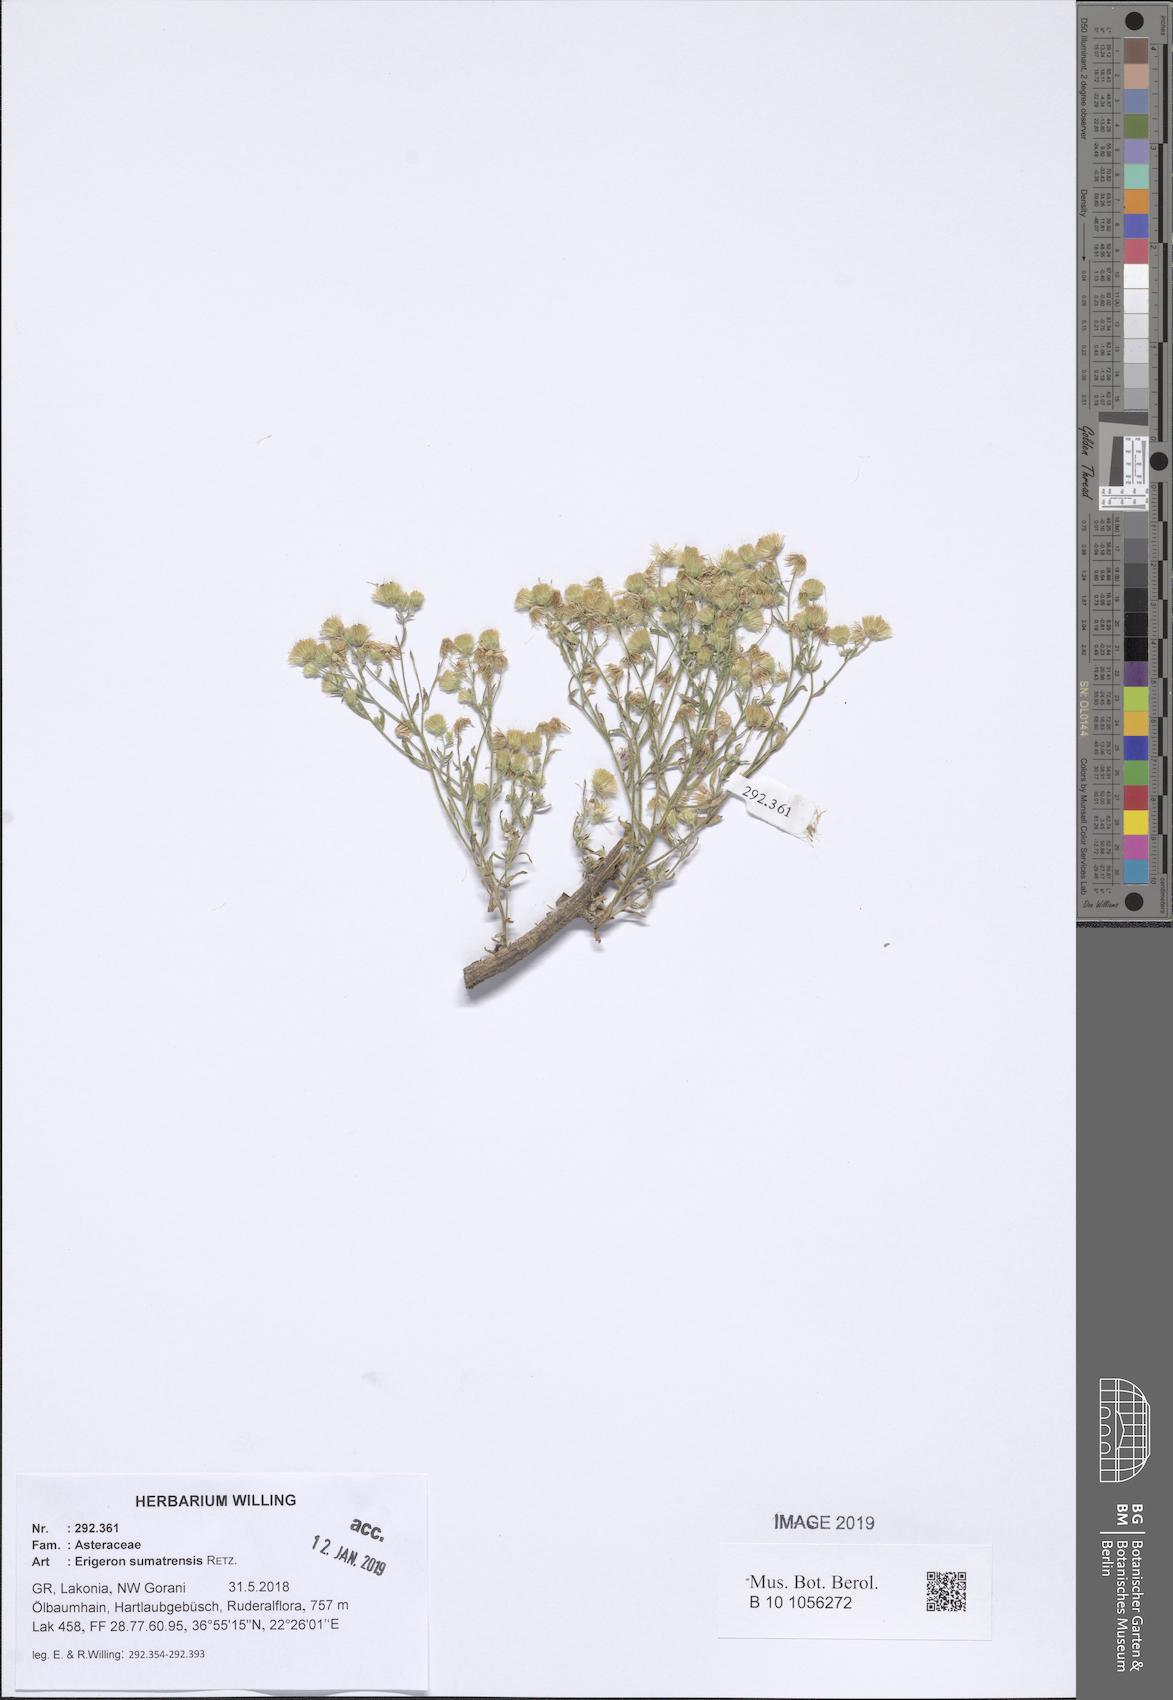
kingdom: Plantae
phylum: Tracheophyta
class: Magnoliopsida
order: Asterales
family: Asteraceae
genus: Erigeron
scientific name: Erigeron sumatrensis
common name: Daisy
